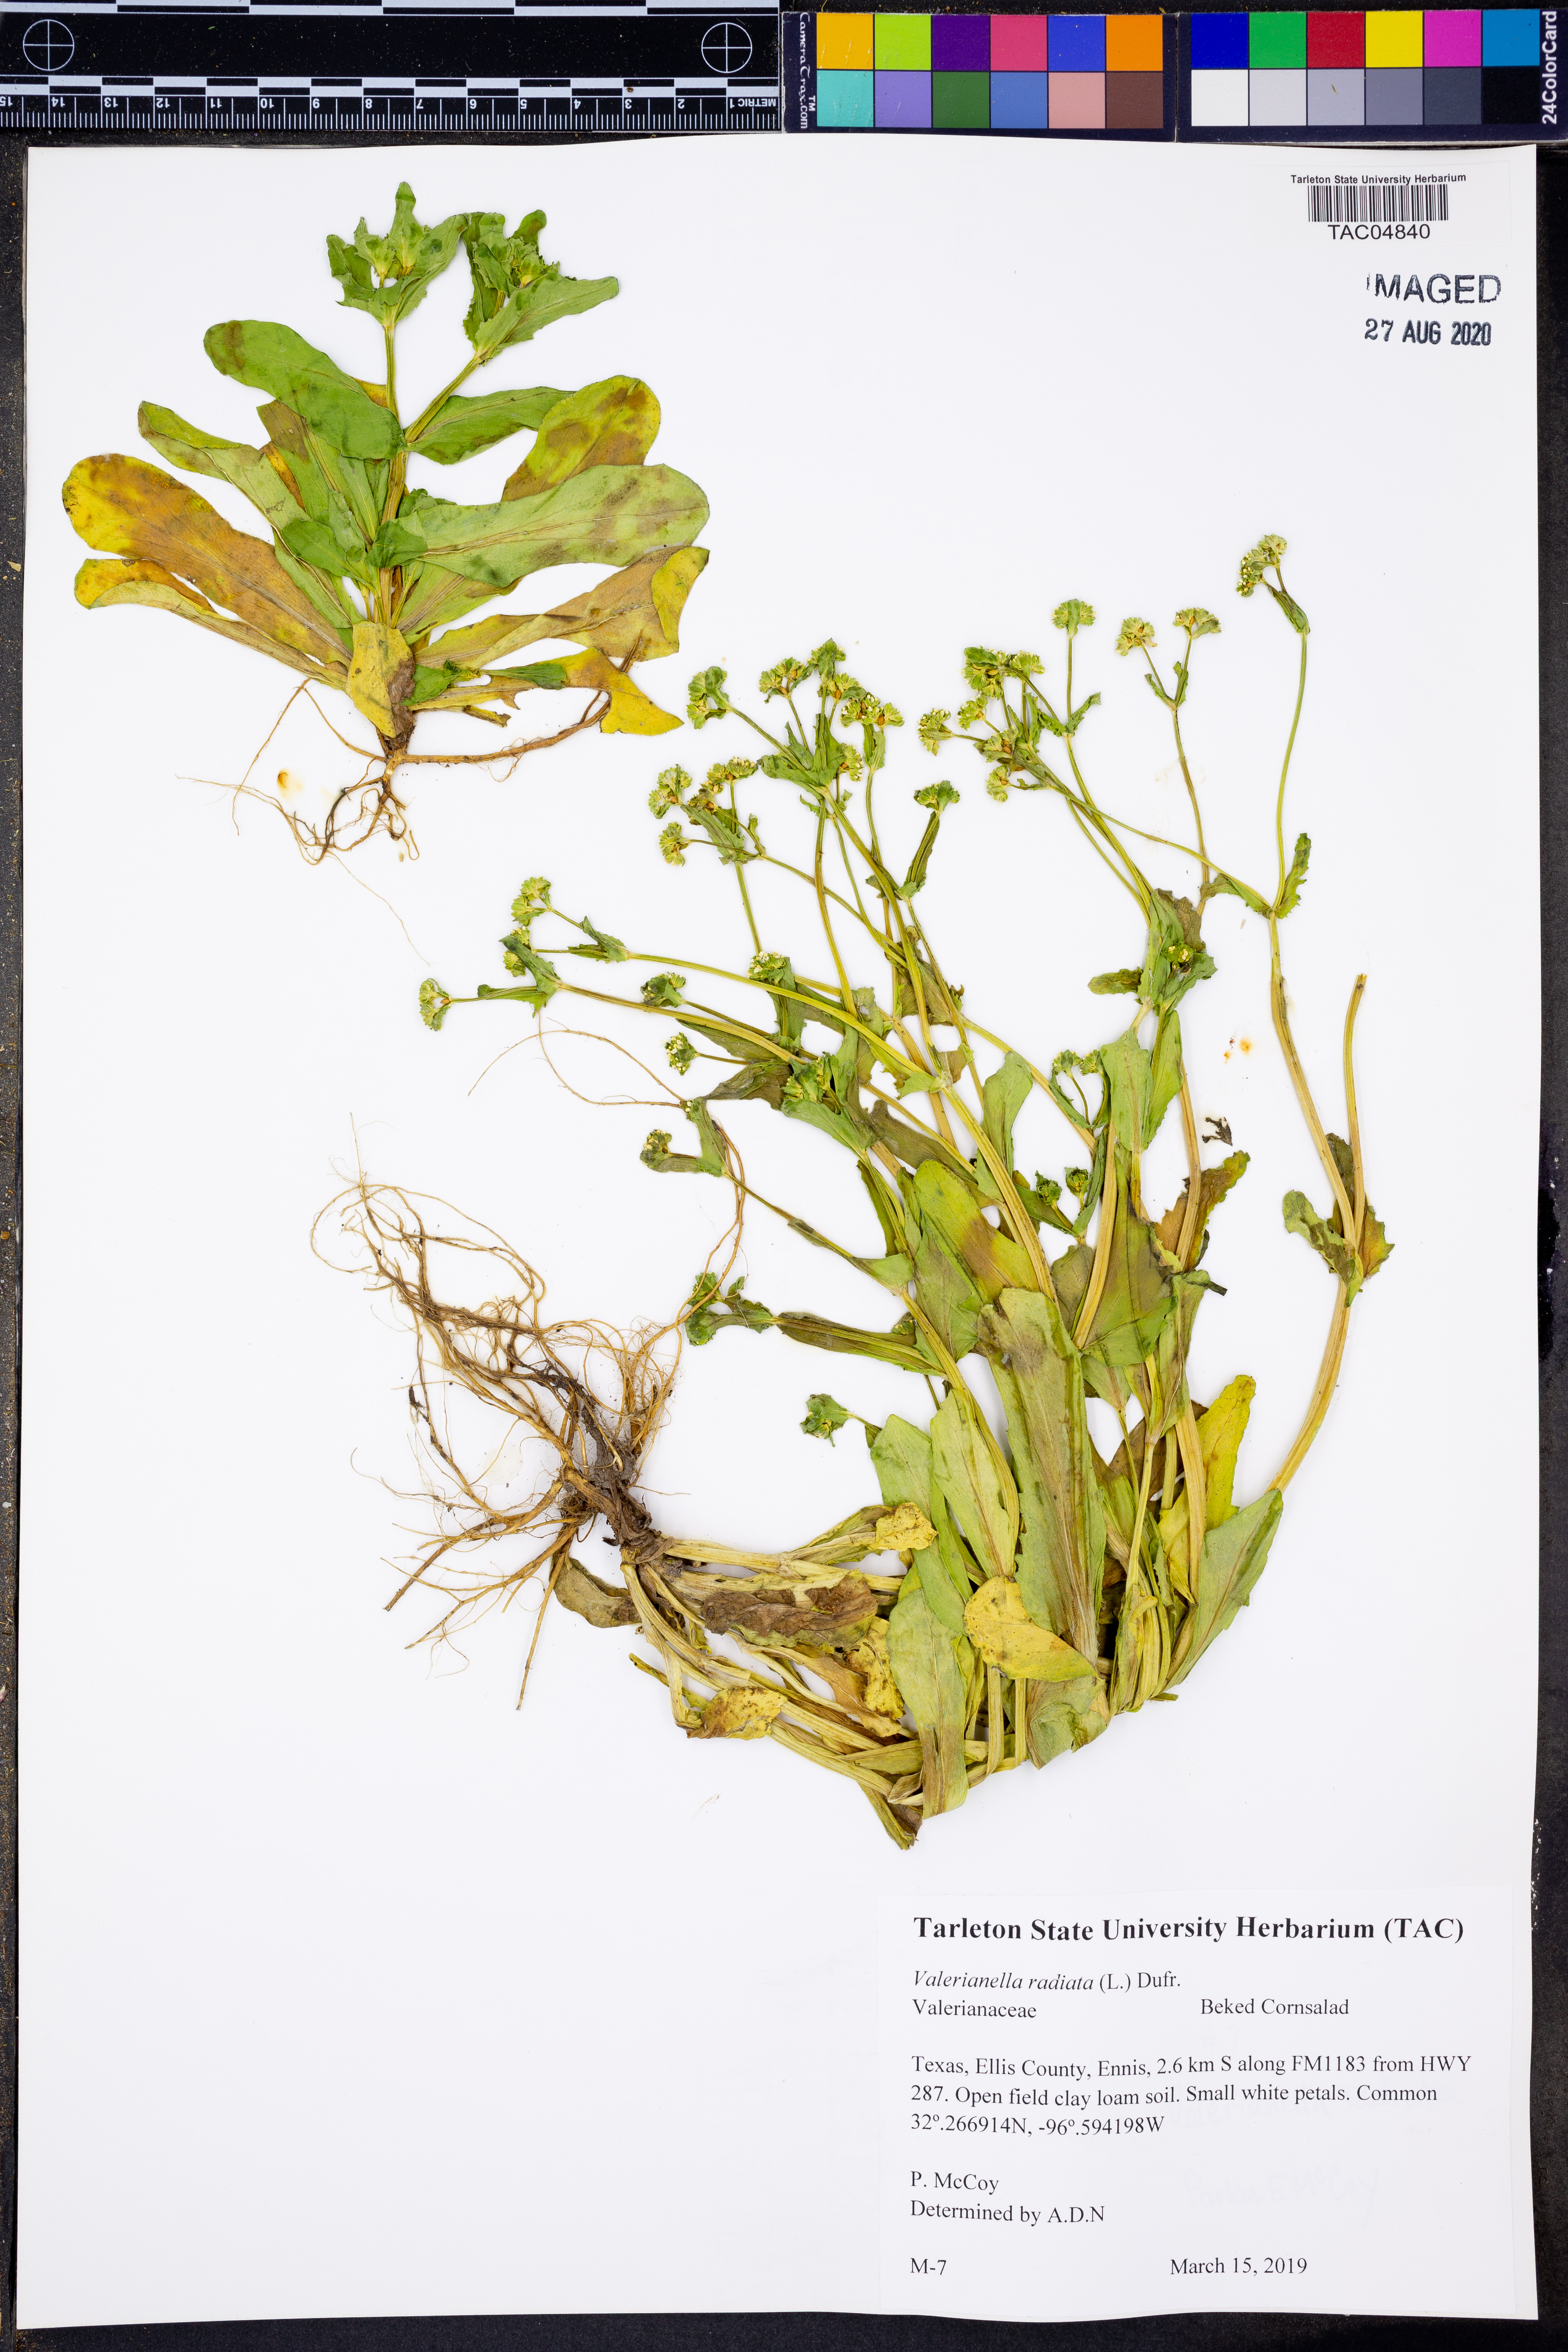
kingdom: Plantae
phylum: Tracheophyta
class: Magnoliopsida
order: Dipsacales
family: Caprifoliaceae
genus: Valerianella
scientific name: Valerianella radiata
